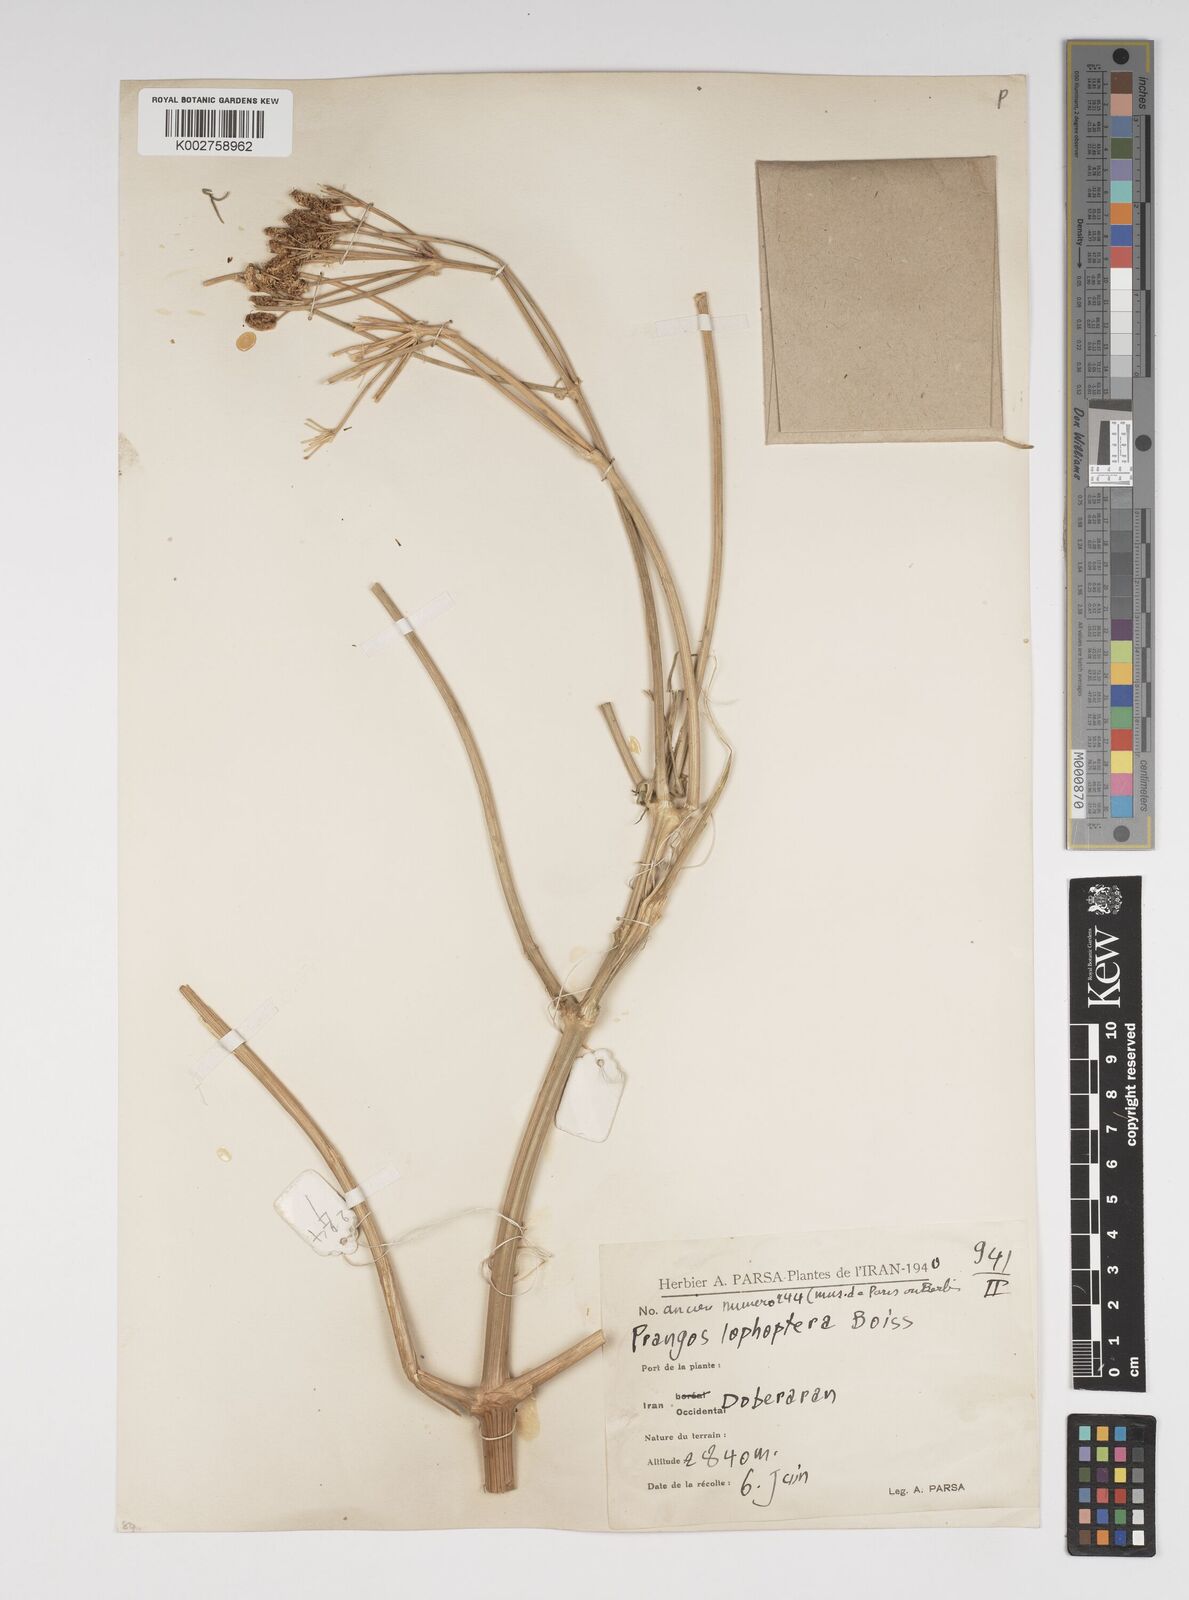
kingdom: Plantae
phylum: Tracheophyta
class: Magnoliopsida
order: Apiales
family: Apiaceae
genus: Prangos
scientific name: Prangos pabularia
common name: Yugan
